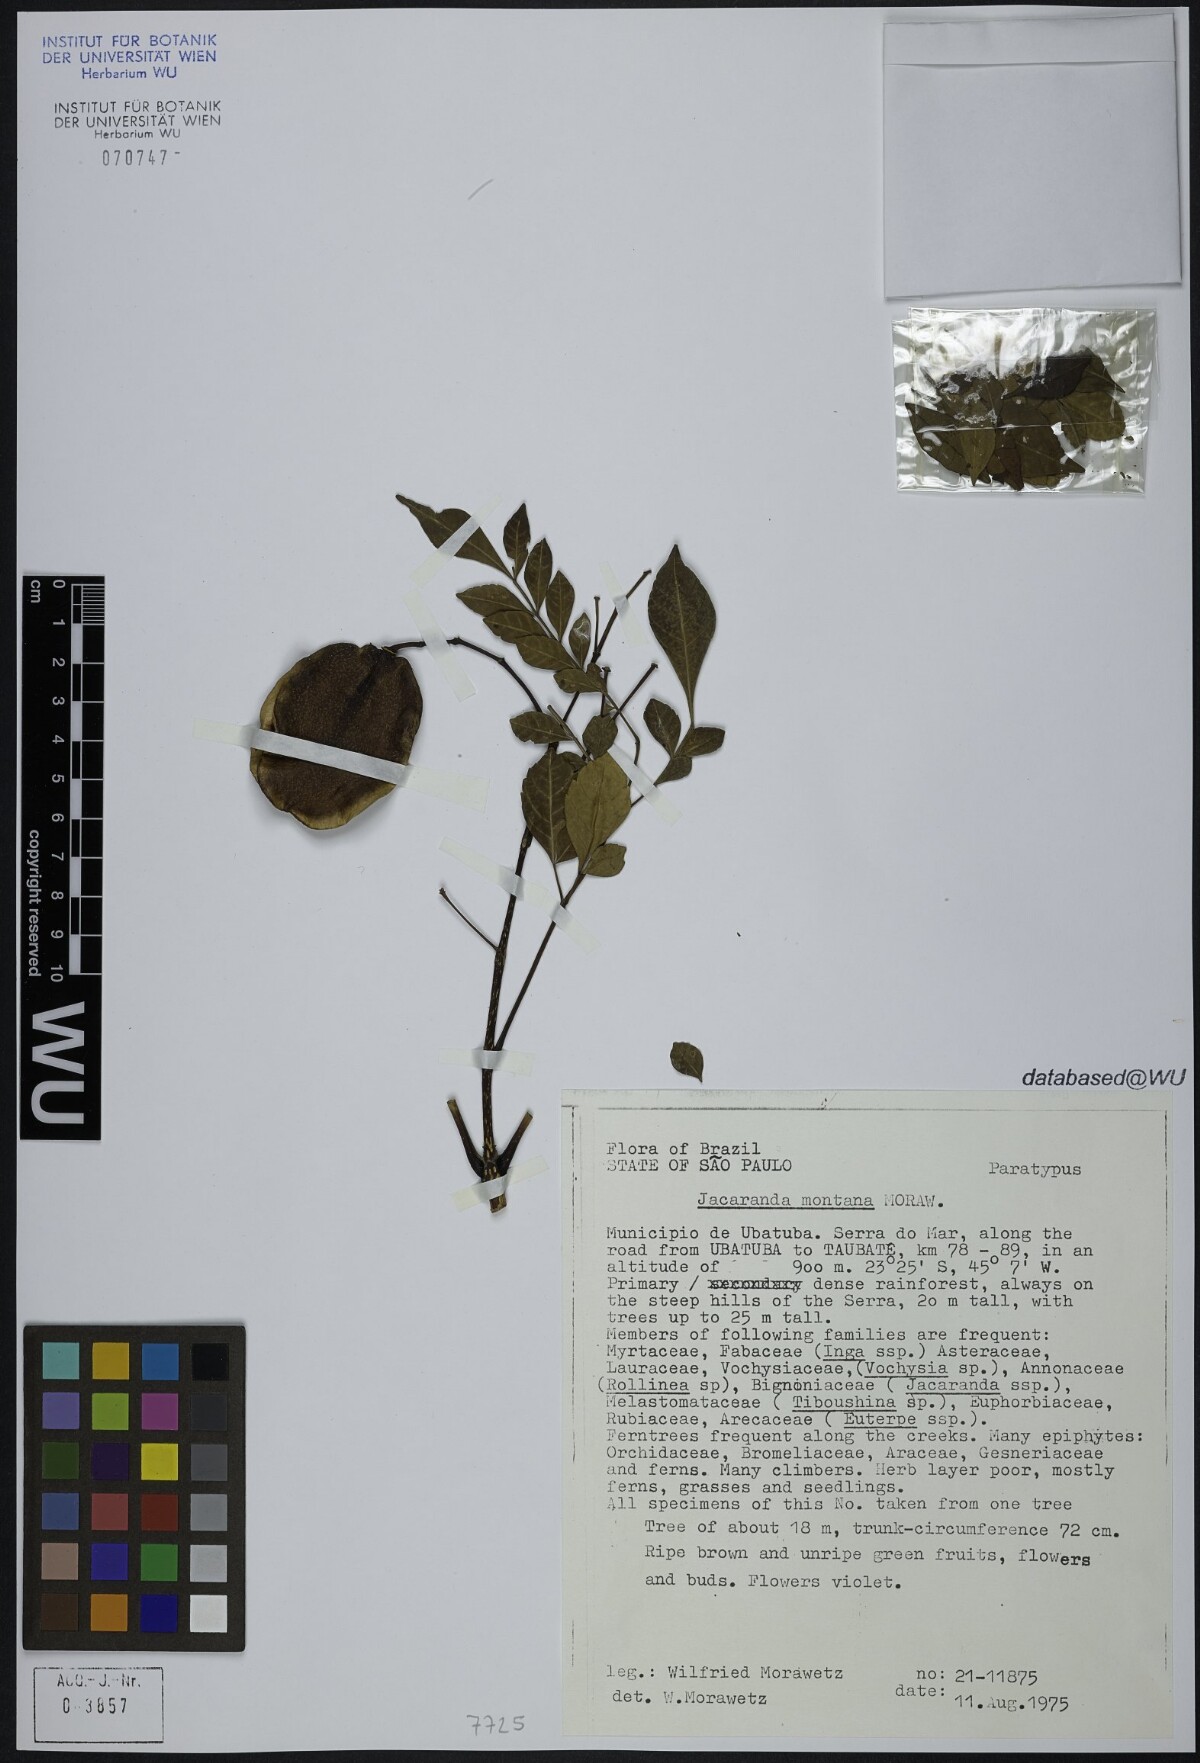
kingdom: Plantae
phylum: Tracheophyta
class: Magnoliopsida
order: Lamiales
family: Bignoniaceae
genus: Jacaranda
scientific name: Jacaranda montana
